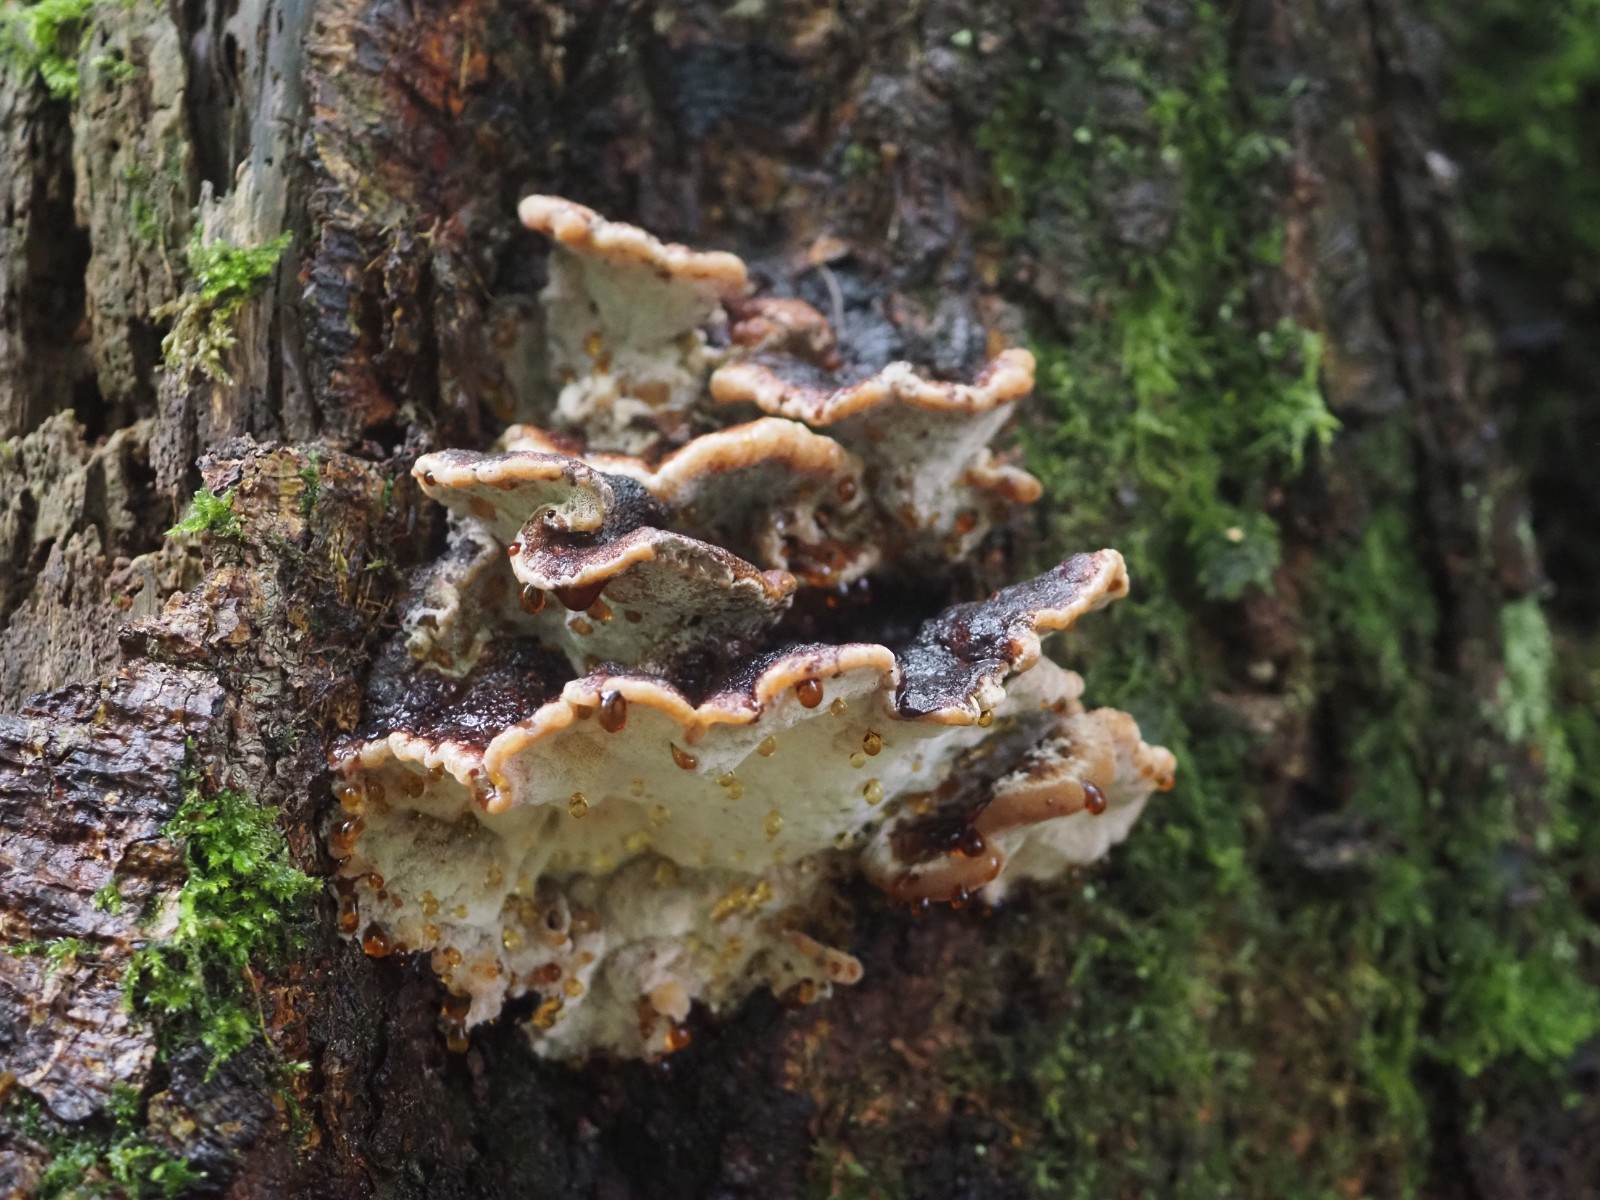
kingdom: Fungi
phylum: Basidiomycota
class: Agaricomycetes
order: Polyporales
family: Ischnodermataceae
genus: Ischnoderma
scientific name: Ischnoderma benzoinum
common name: gran-tjæreporesvamp
